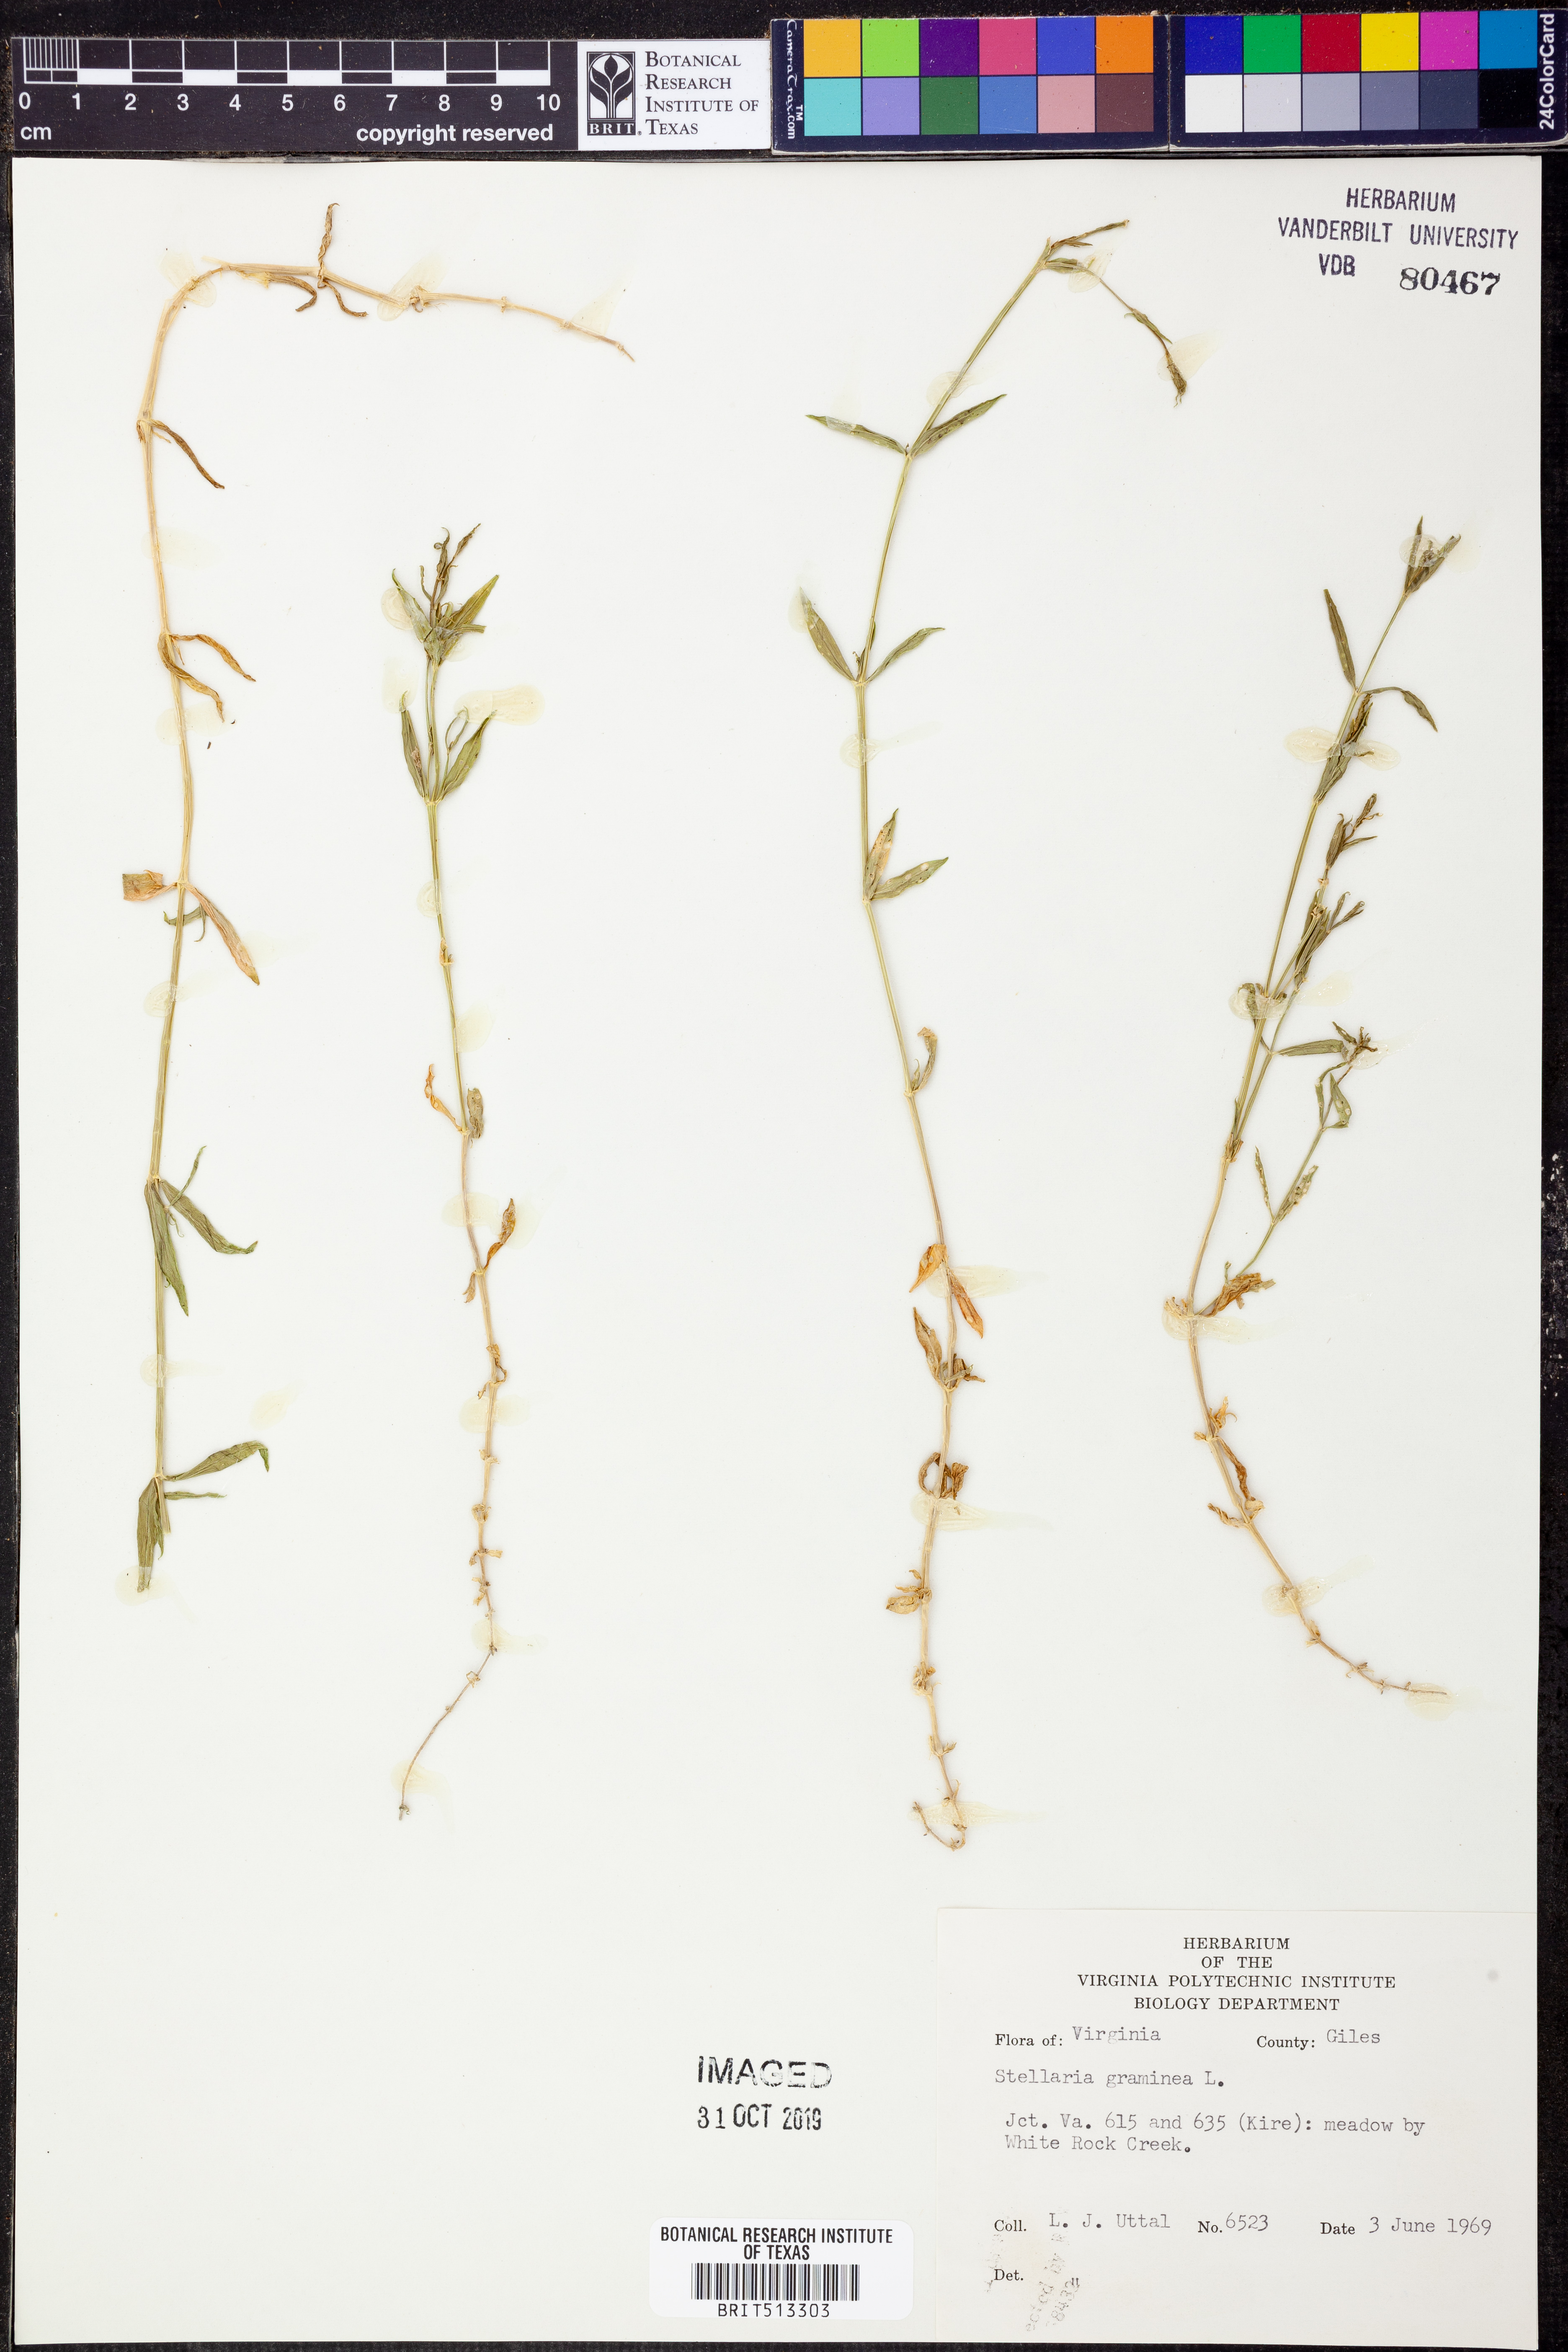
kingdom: Plantae
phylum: Tracheophyta
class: Magnoliopsida
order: Caryophyllales
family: Caryophyllaceae
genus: Stellaria
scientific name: Stellaria graminea
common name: Grass-like starwort
